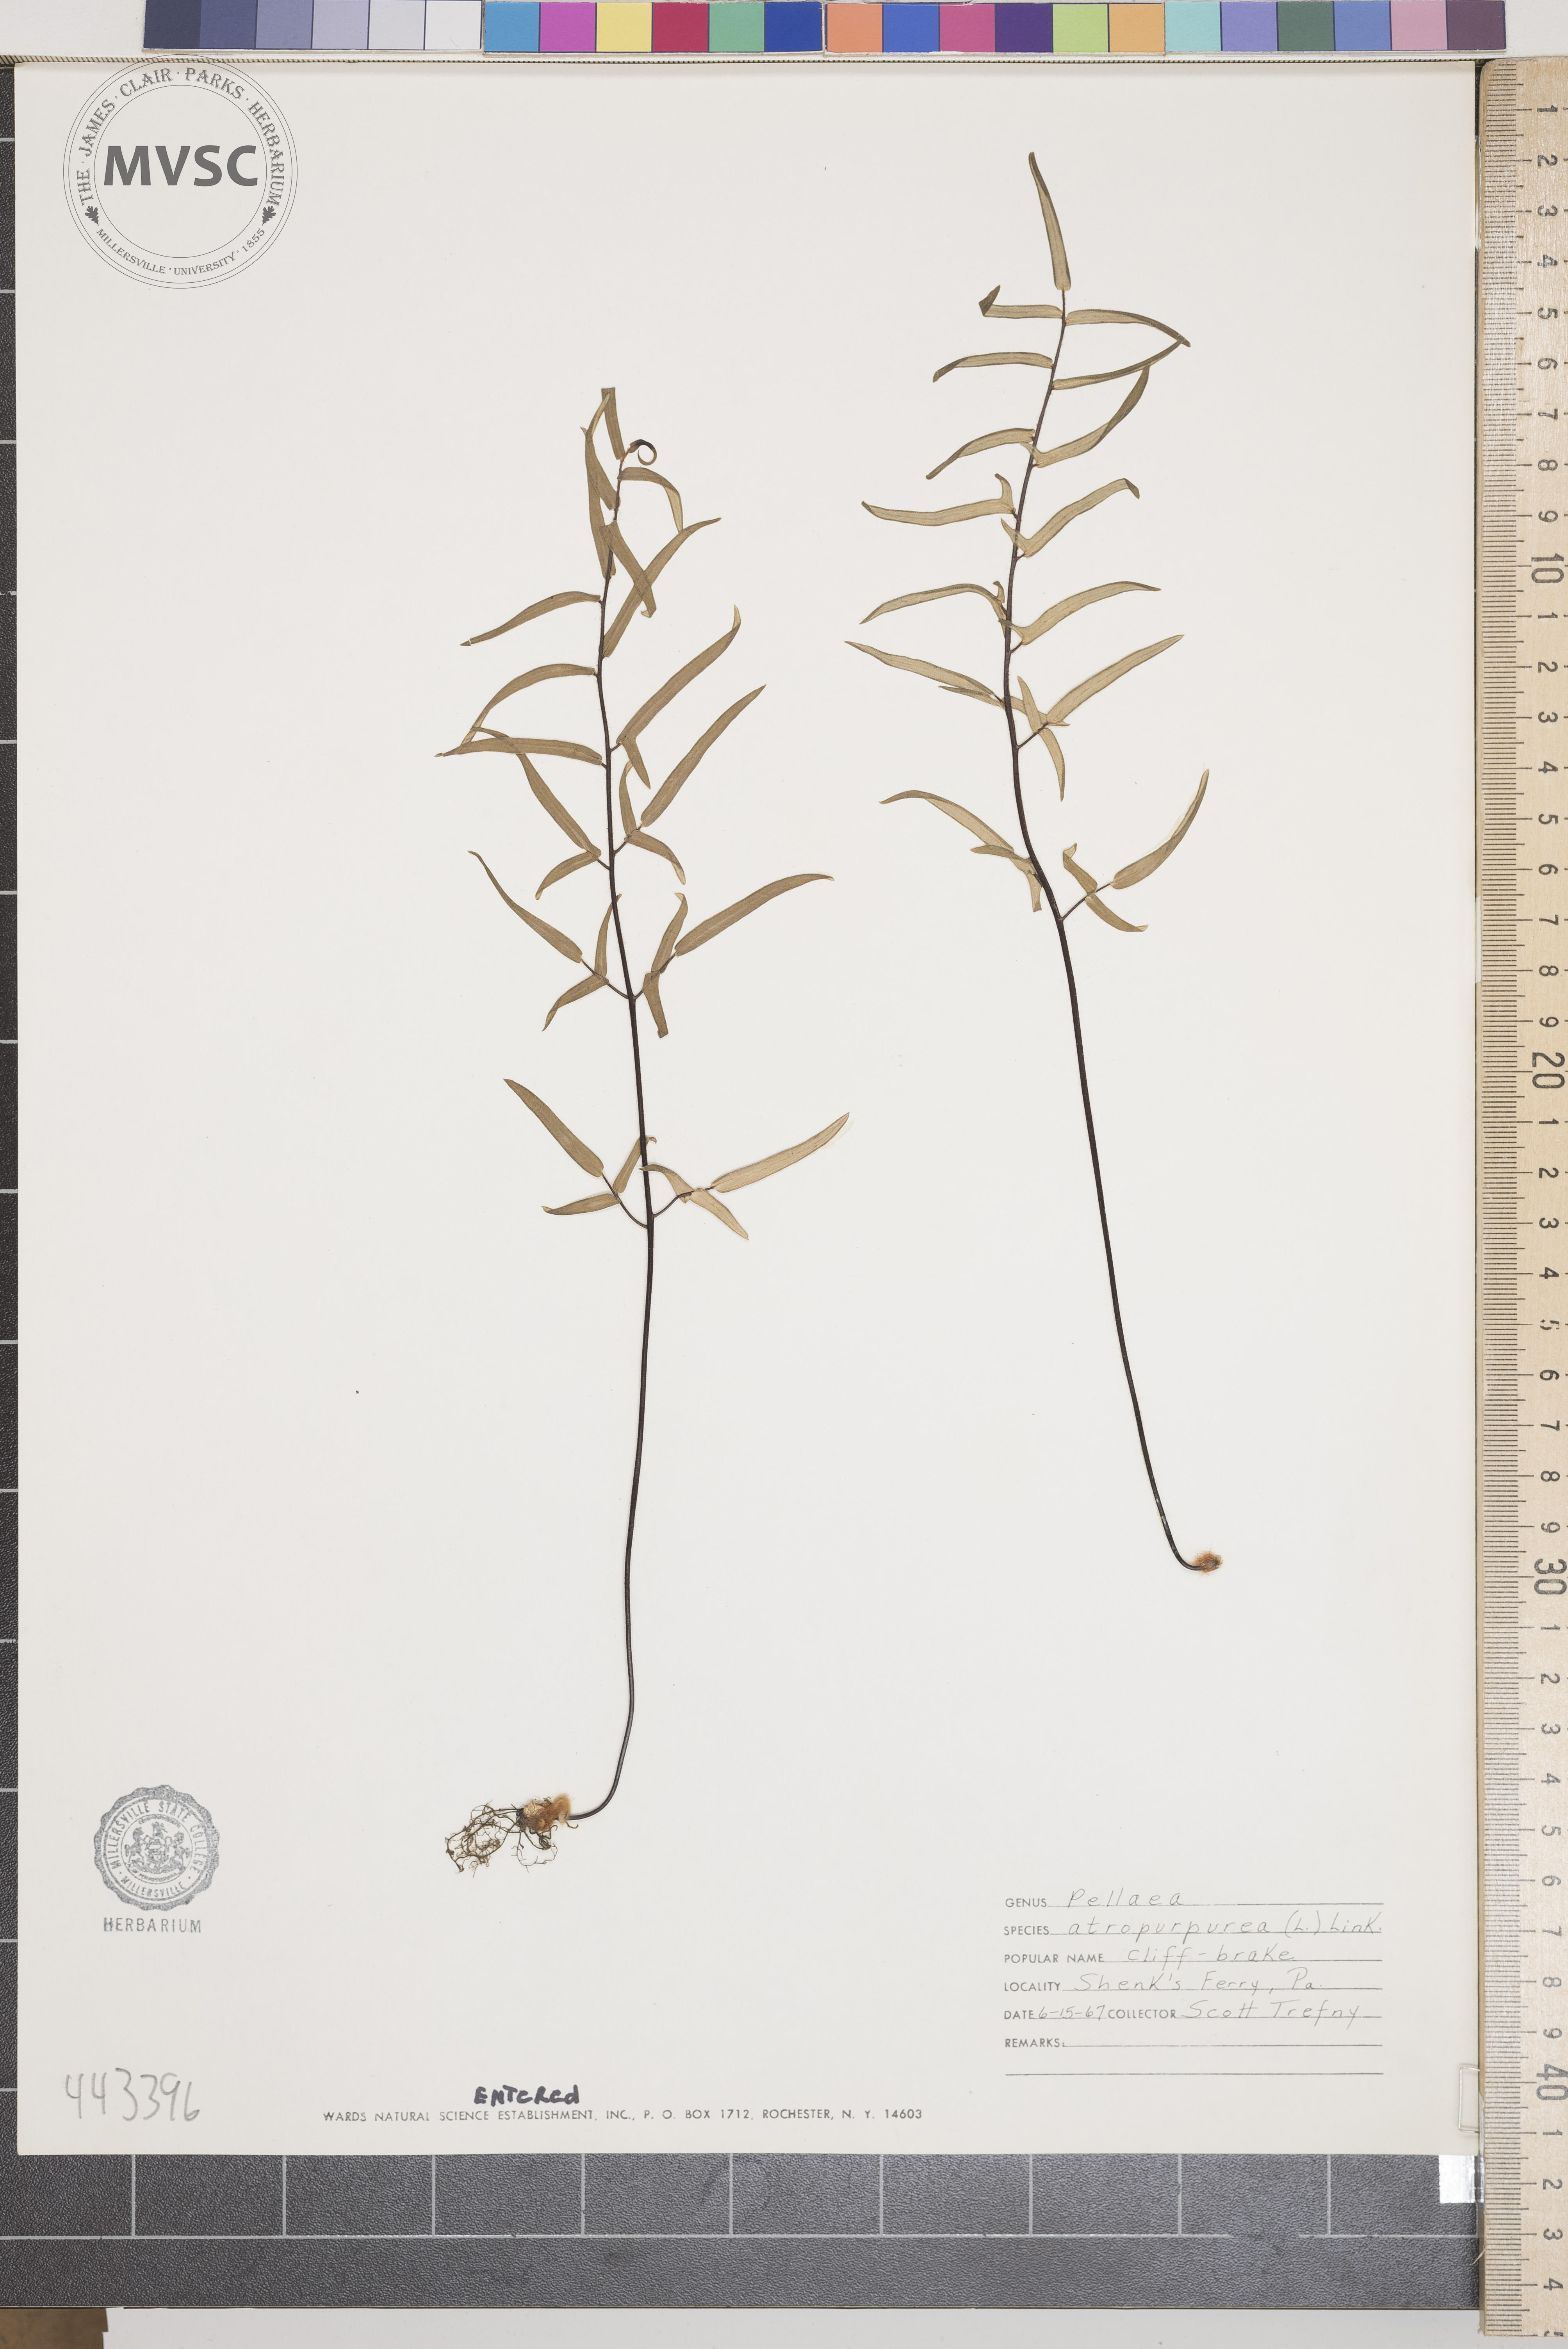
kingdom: Plantae
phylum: Tracheophyta
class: Polypodiopsida
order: Polypodiales
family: Pteridaceae
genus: Pellaea
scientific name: Pellaea atropurpurea
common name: Hairy cliffbrake
